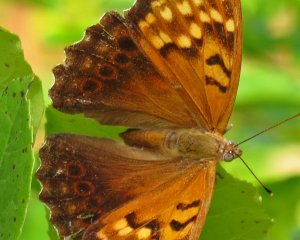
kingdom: Animalia
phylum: Arthropoda
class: Insecta
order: Lepidoptera
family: Nymphalidae
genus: Asterocampa
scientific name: Asterocampa clyton
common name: Tawny Emperor
